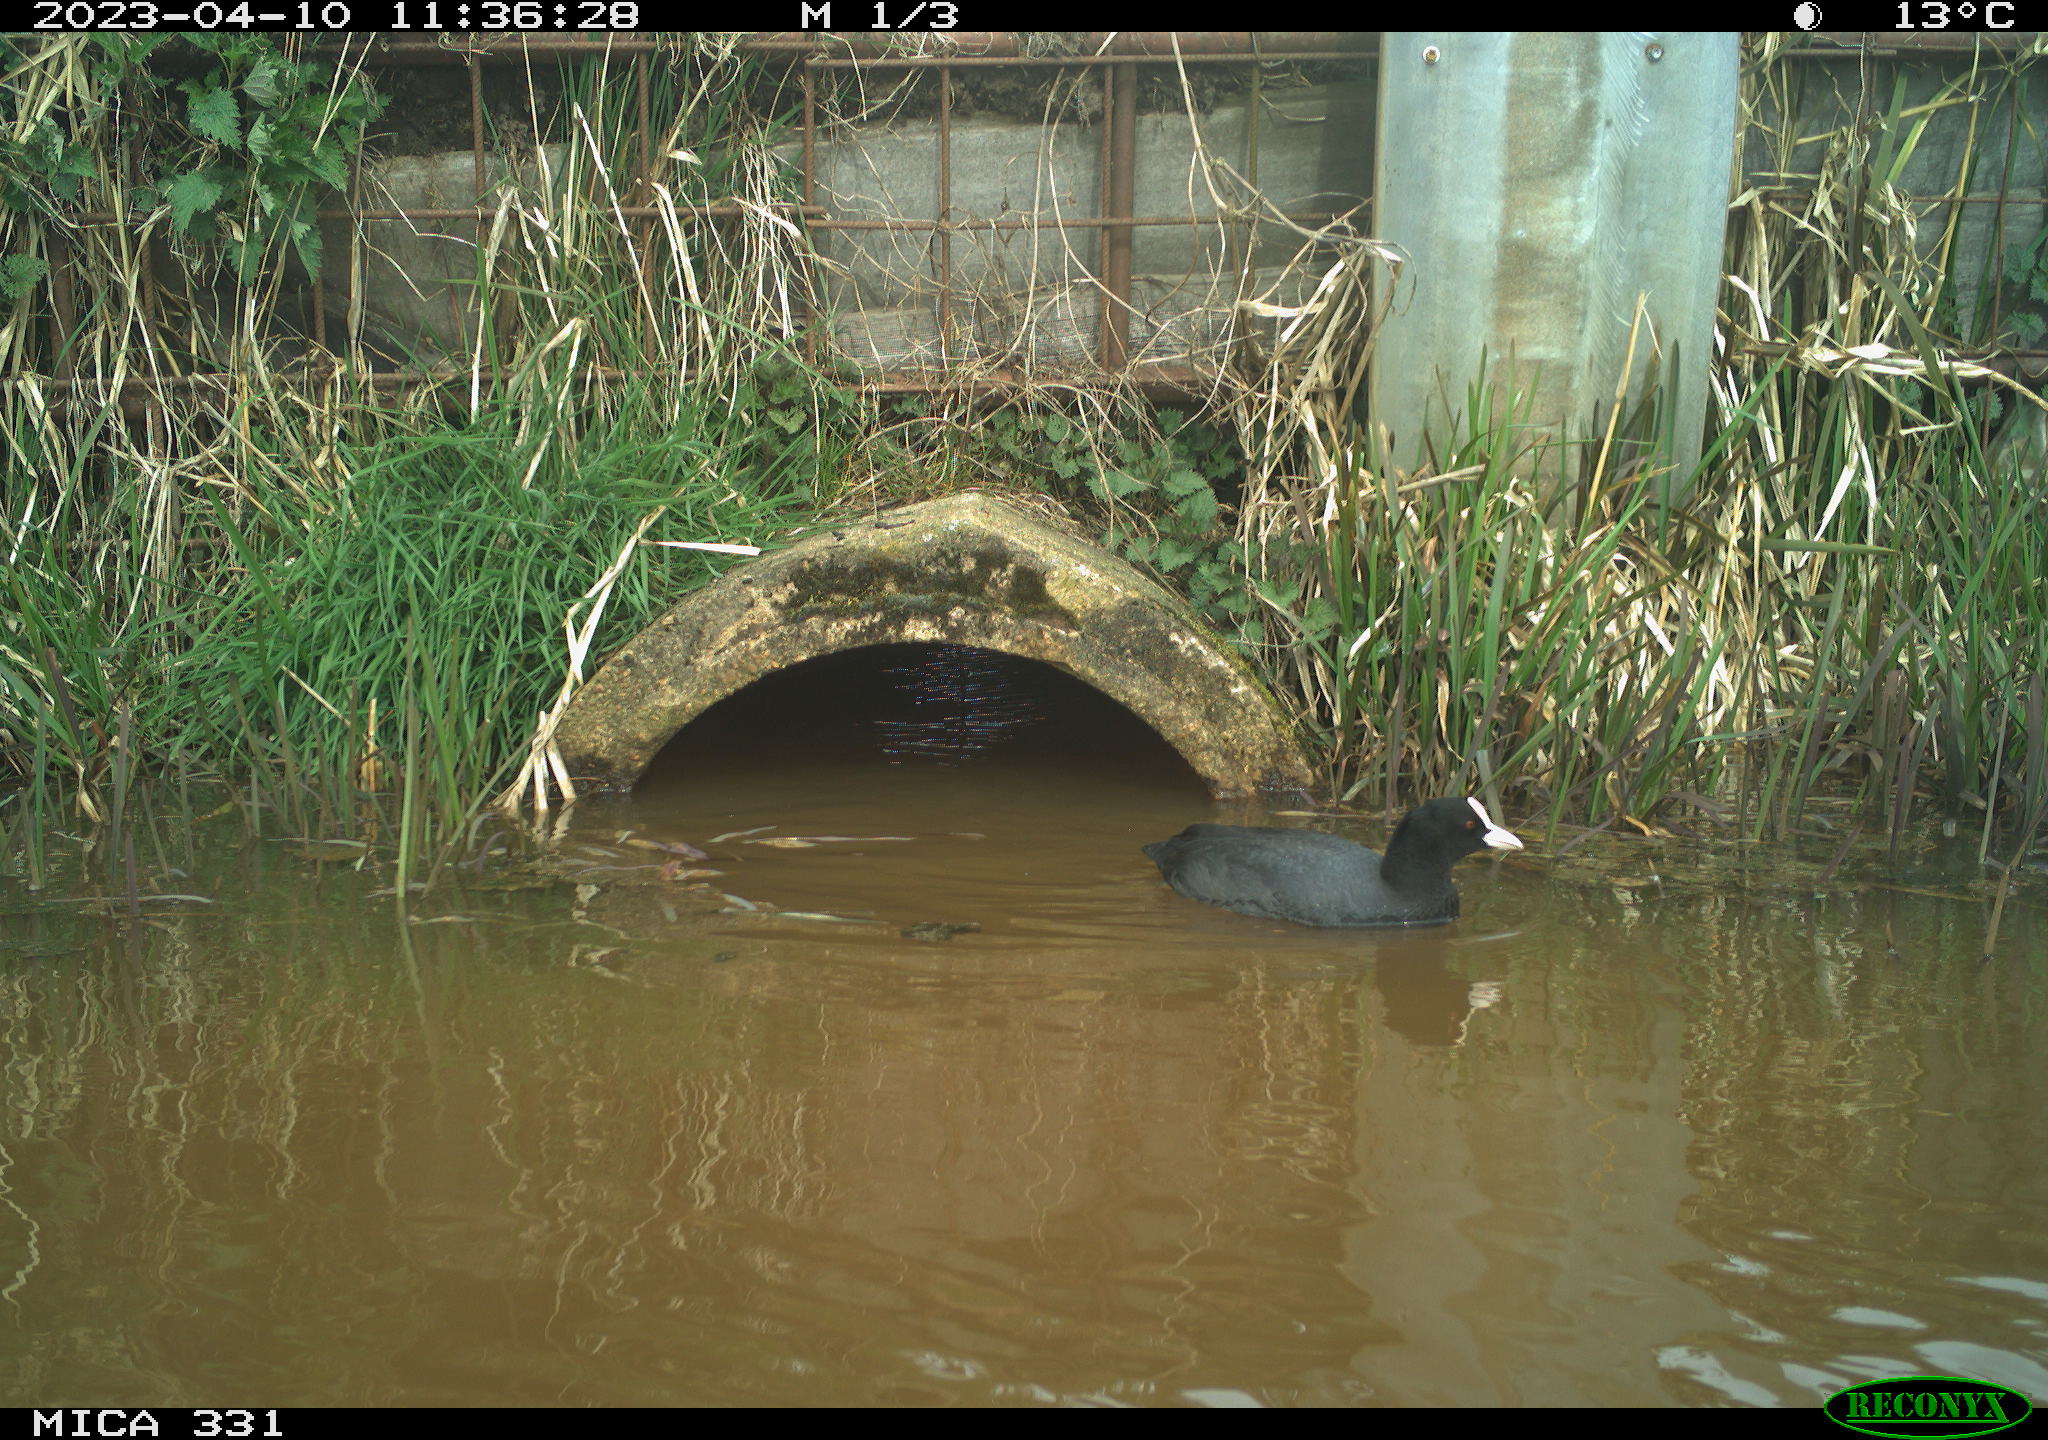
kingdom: Animalia
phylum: Chordata
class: Aves
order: Gruiformes
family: Rallidae
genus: Fulica
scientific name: Fulica atra
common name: Eurasian coot
